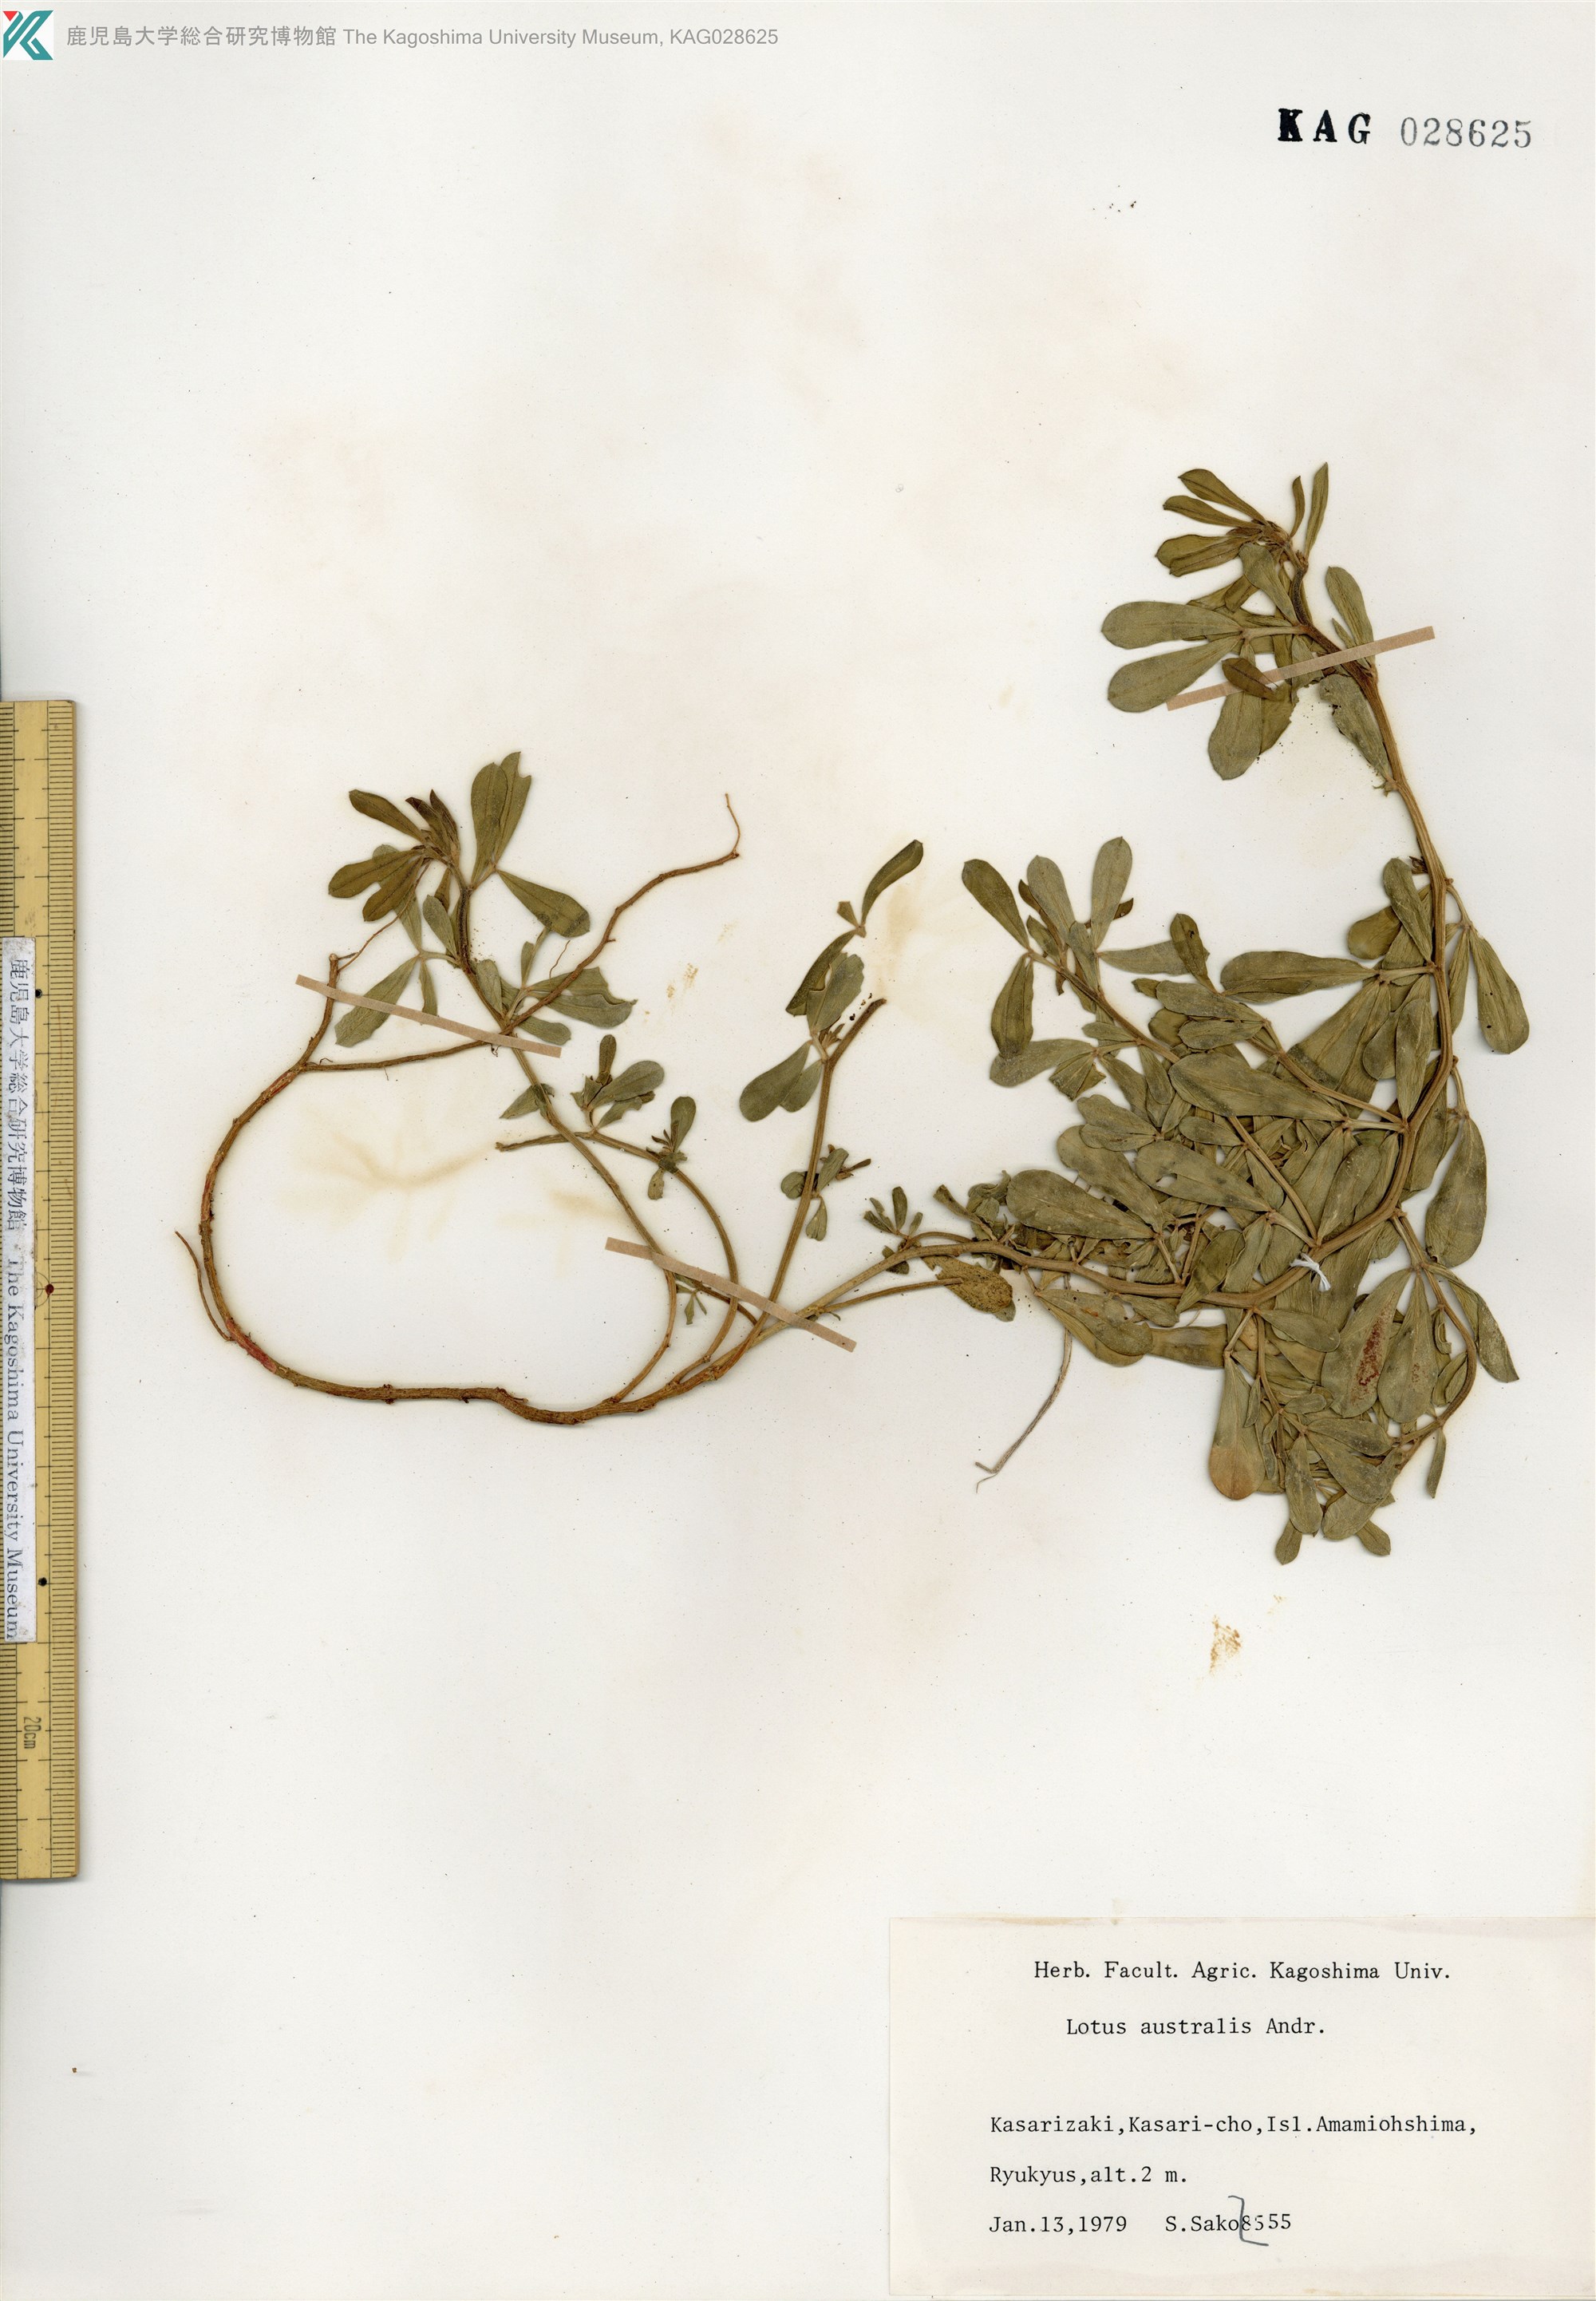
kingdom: Plantae
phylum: Tracheophyta
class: Magnoliopsida
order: Fabales
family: Fabaceae
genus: Lotus
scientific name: Lotus taitungensis
